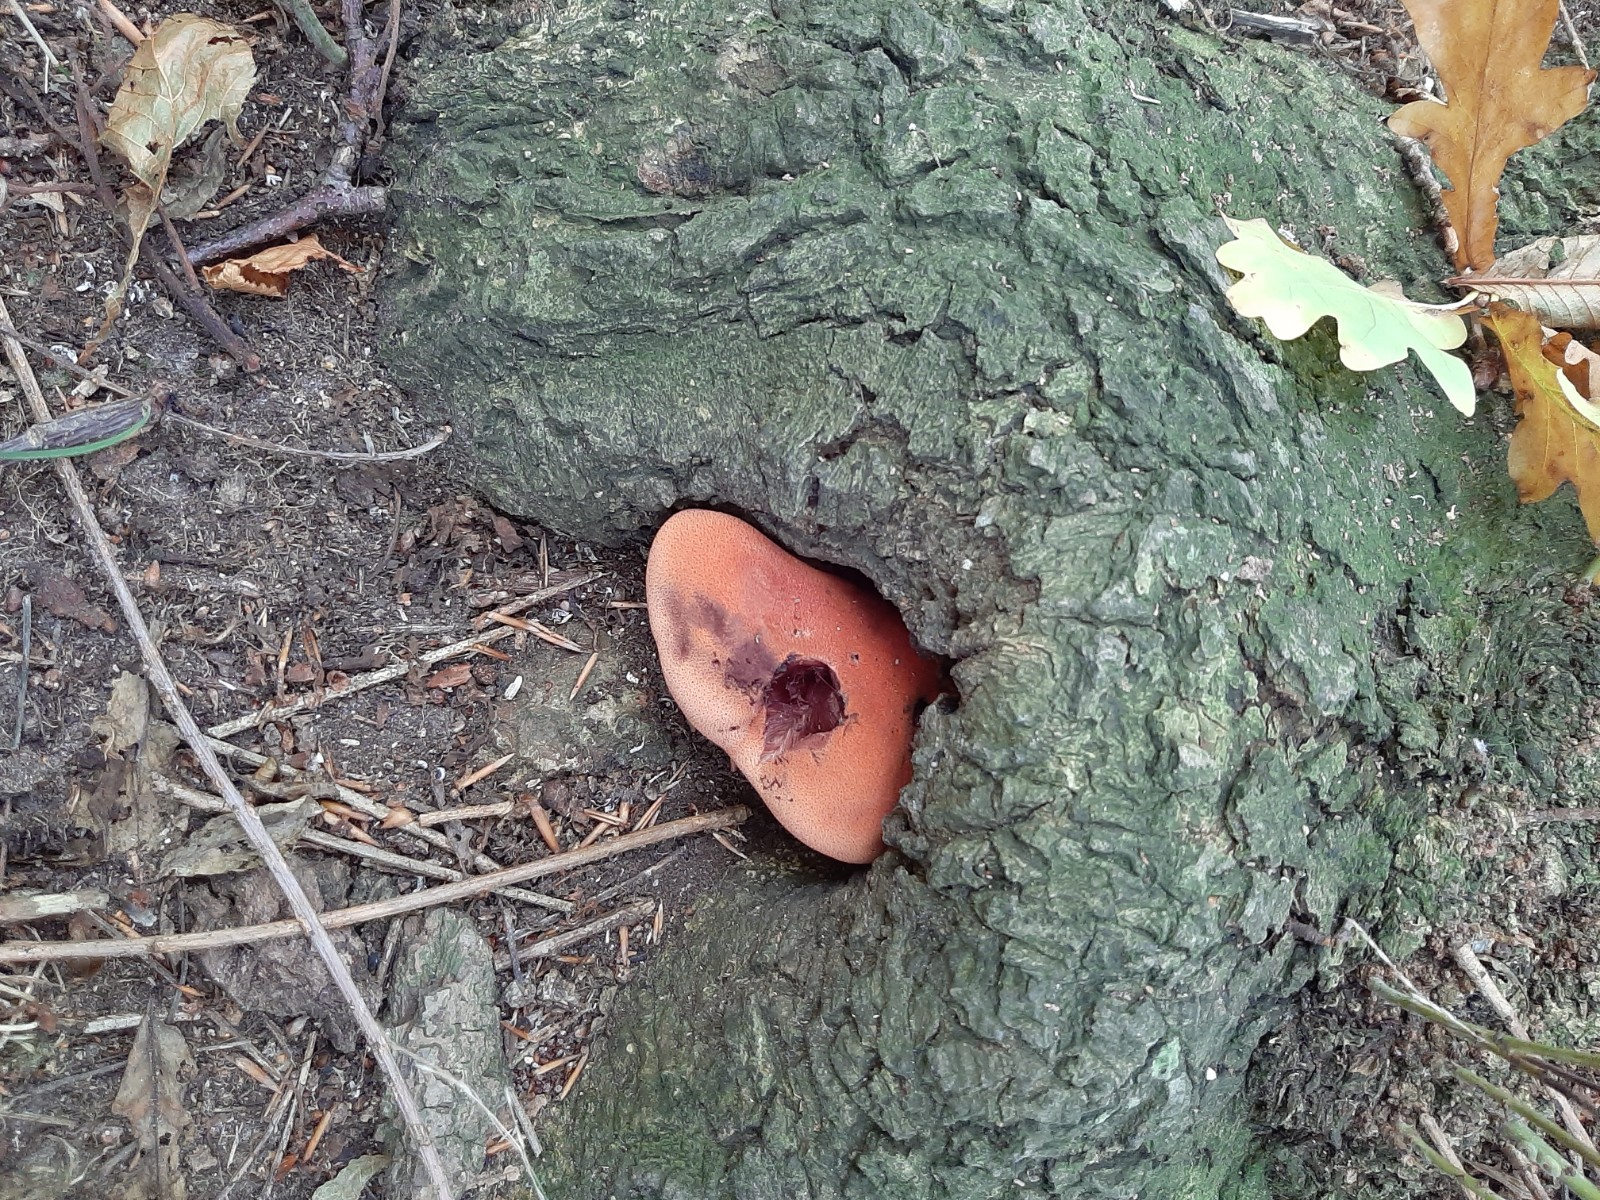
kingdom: Fungi
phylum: Basidiomycota
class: Agaricomycetes
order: Agaricales
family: Fistulinaceae
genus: Fistulina
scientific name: Fistulina hepatica
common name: oksetunge
